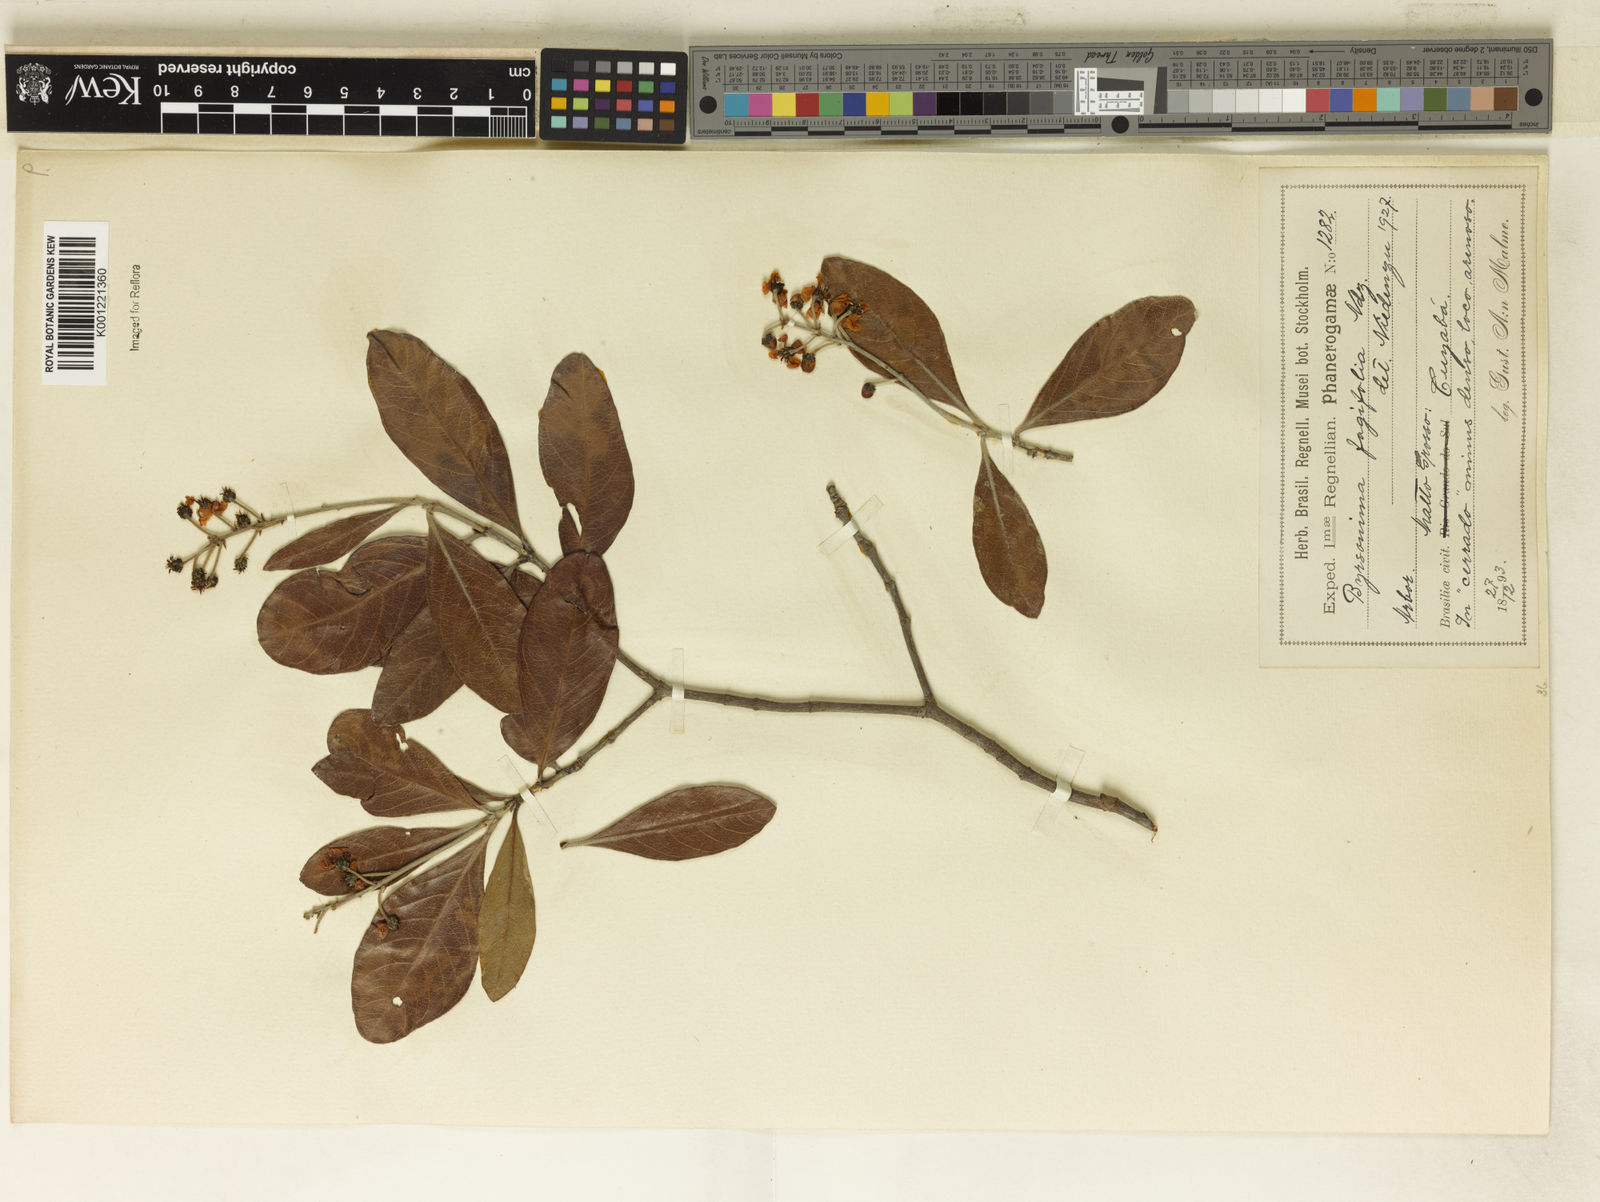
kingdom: Plantae
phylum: Tracheophyta
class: Magnoliopsida
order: Malpighiales
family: Malpighiaceae
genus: Byrsonima
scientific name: Byrsonima crassifolia
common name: Golden spoon
